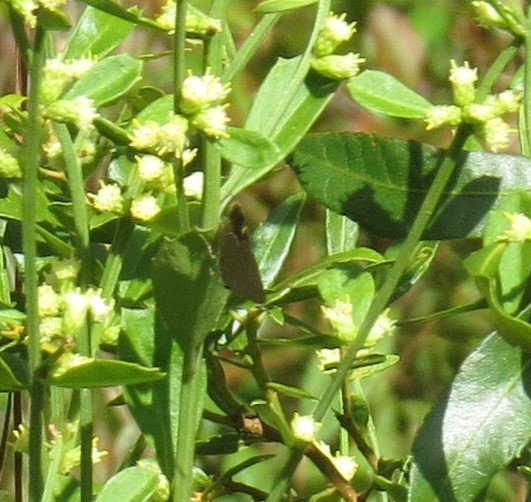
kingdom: Animalia
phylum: Arthropoda
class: Insecta
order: Lepidoptera
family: Lycaenidae
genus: Calycopis
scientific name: Calycopis cecrops
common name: Red-banded Hairstreak
